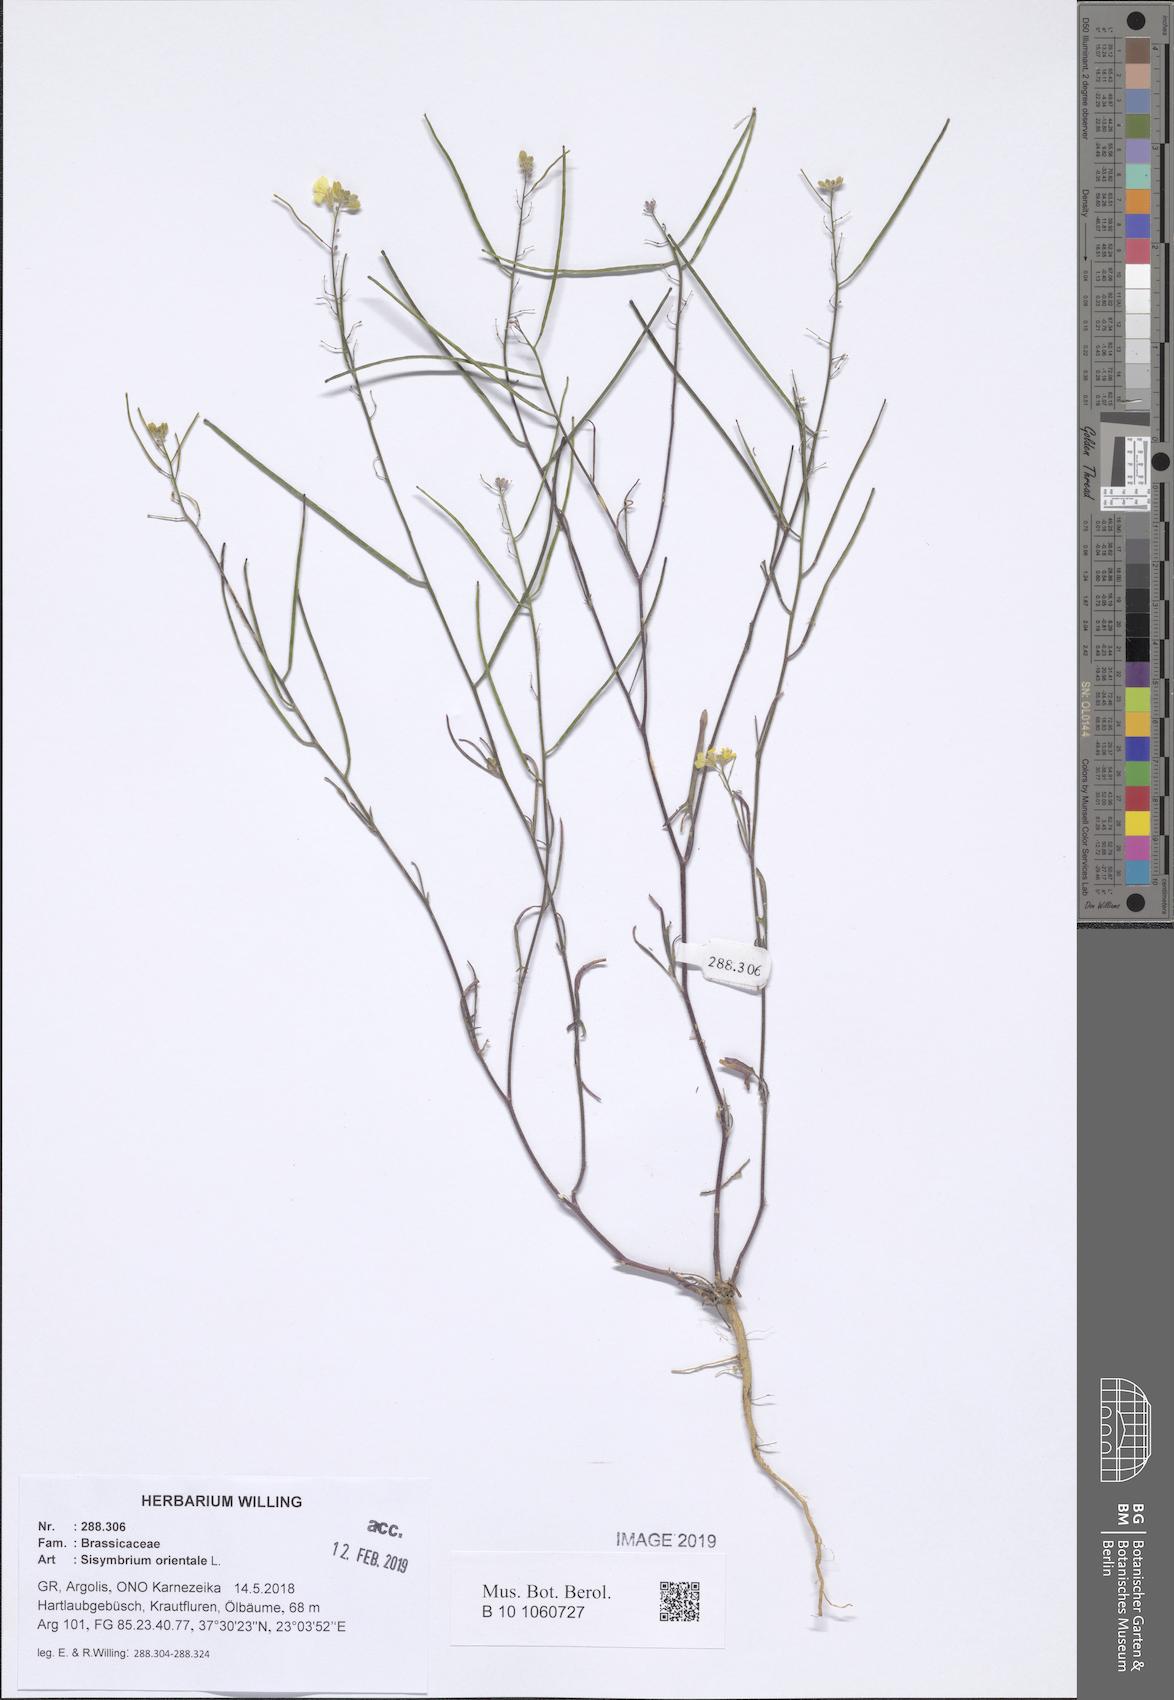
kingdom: Plantae
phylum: Tracheophyta
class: Magnoliopsida
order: Brassicales
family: Brassicaceae
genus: Sisymbrium
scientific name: Sisymbrium orientale
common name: Eastern rocket
